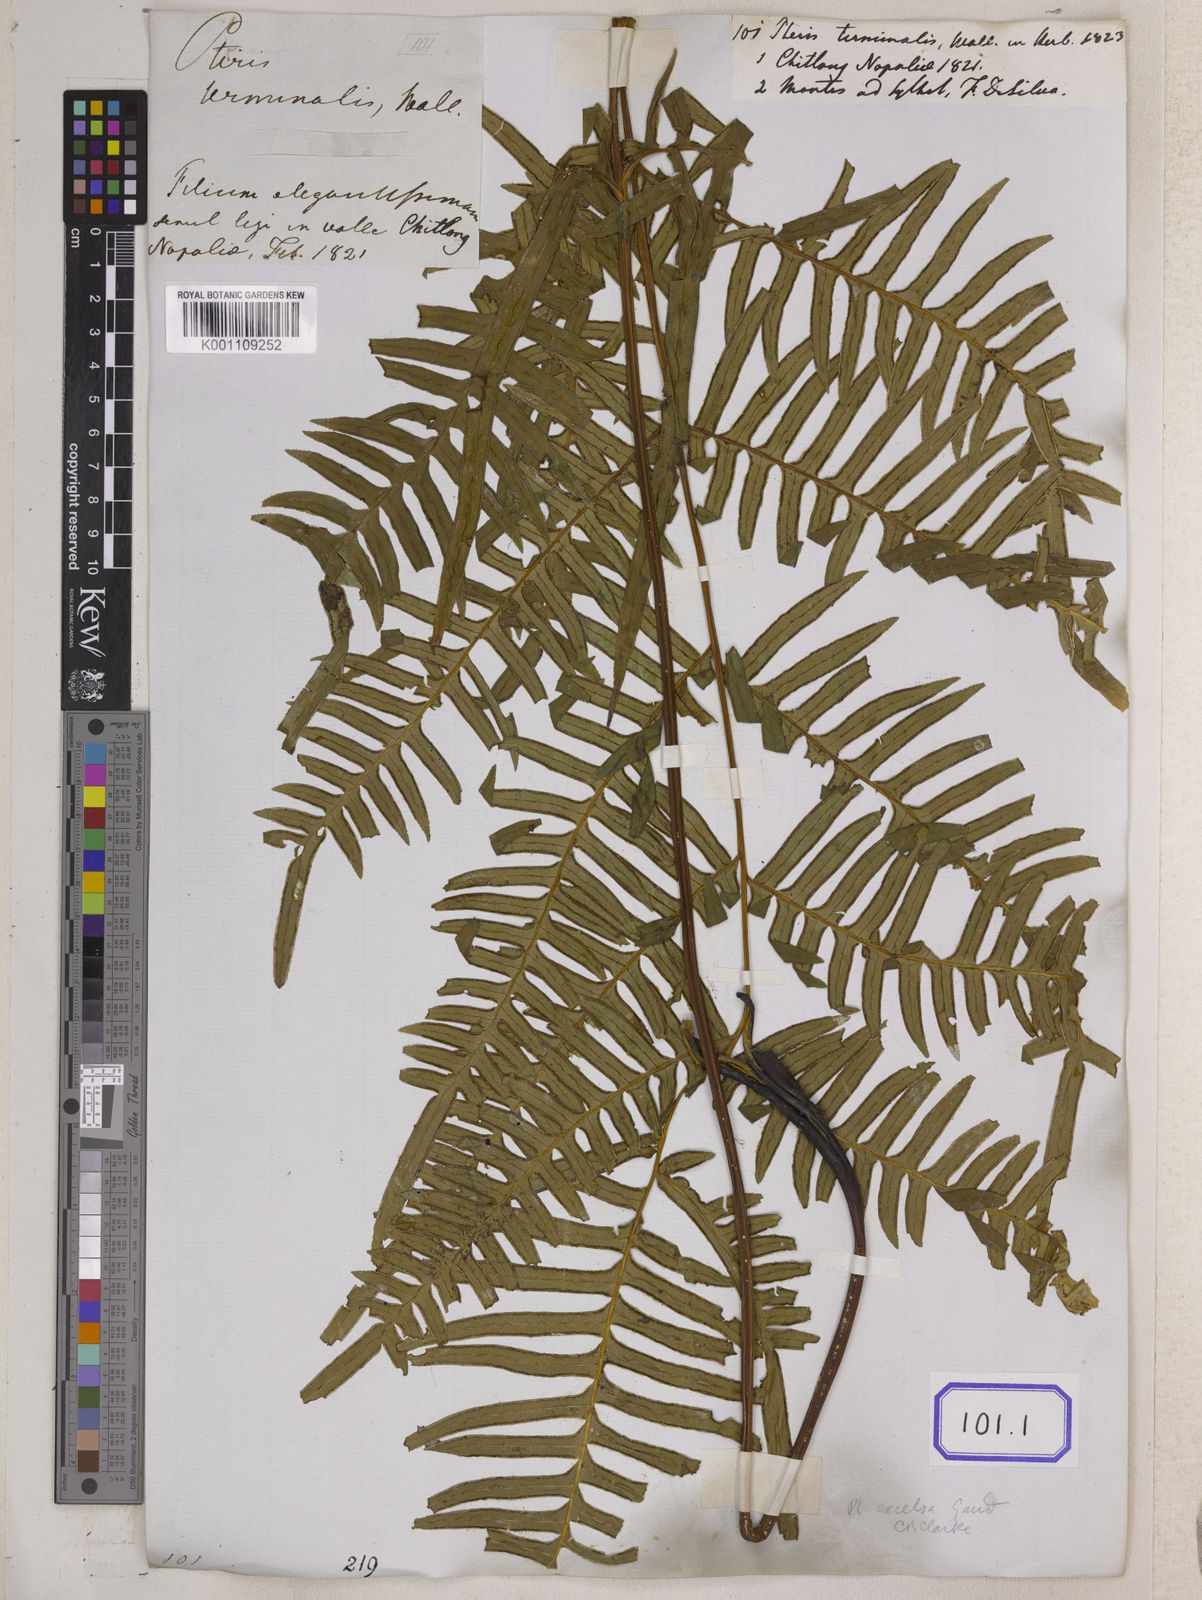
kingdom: Plantae
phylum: Tracheophyta
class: Polypodiopsida
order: Polypodiales
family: Pteridaceae
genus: Pteris
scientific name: Pteris terminalis
